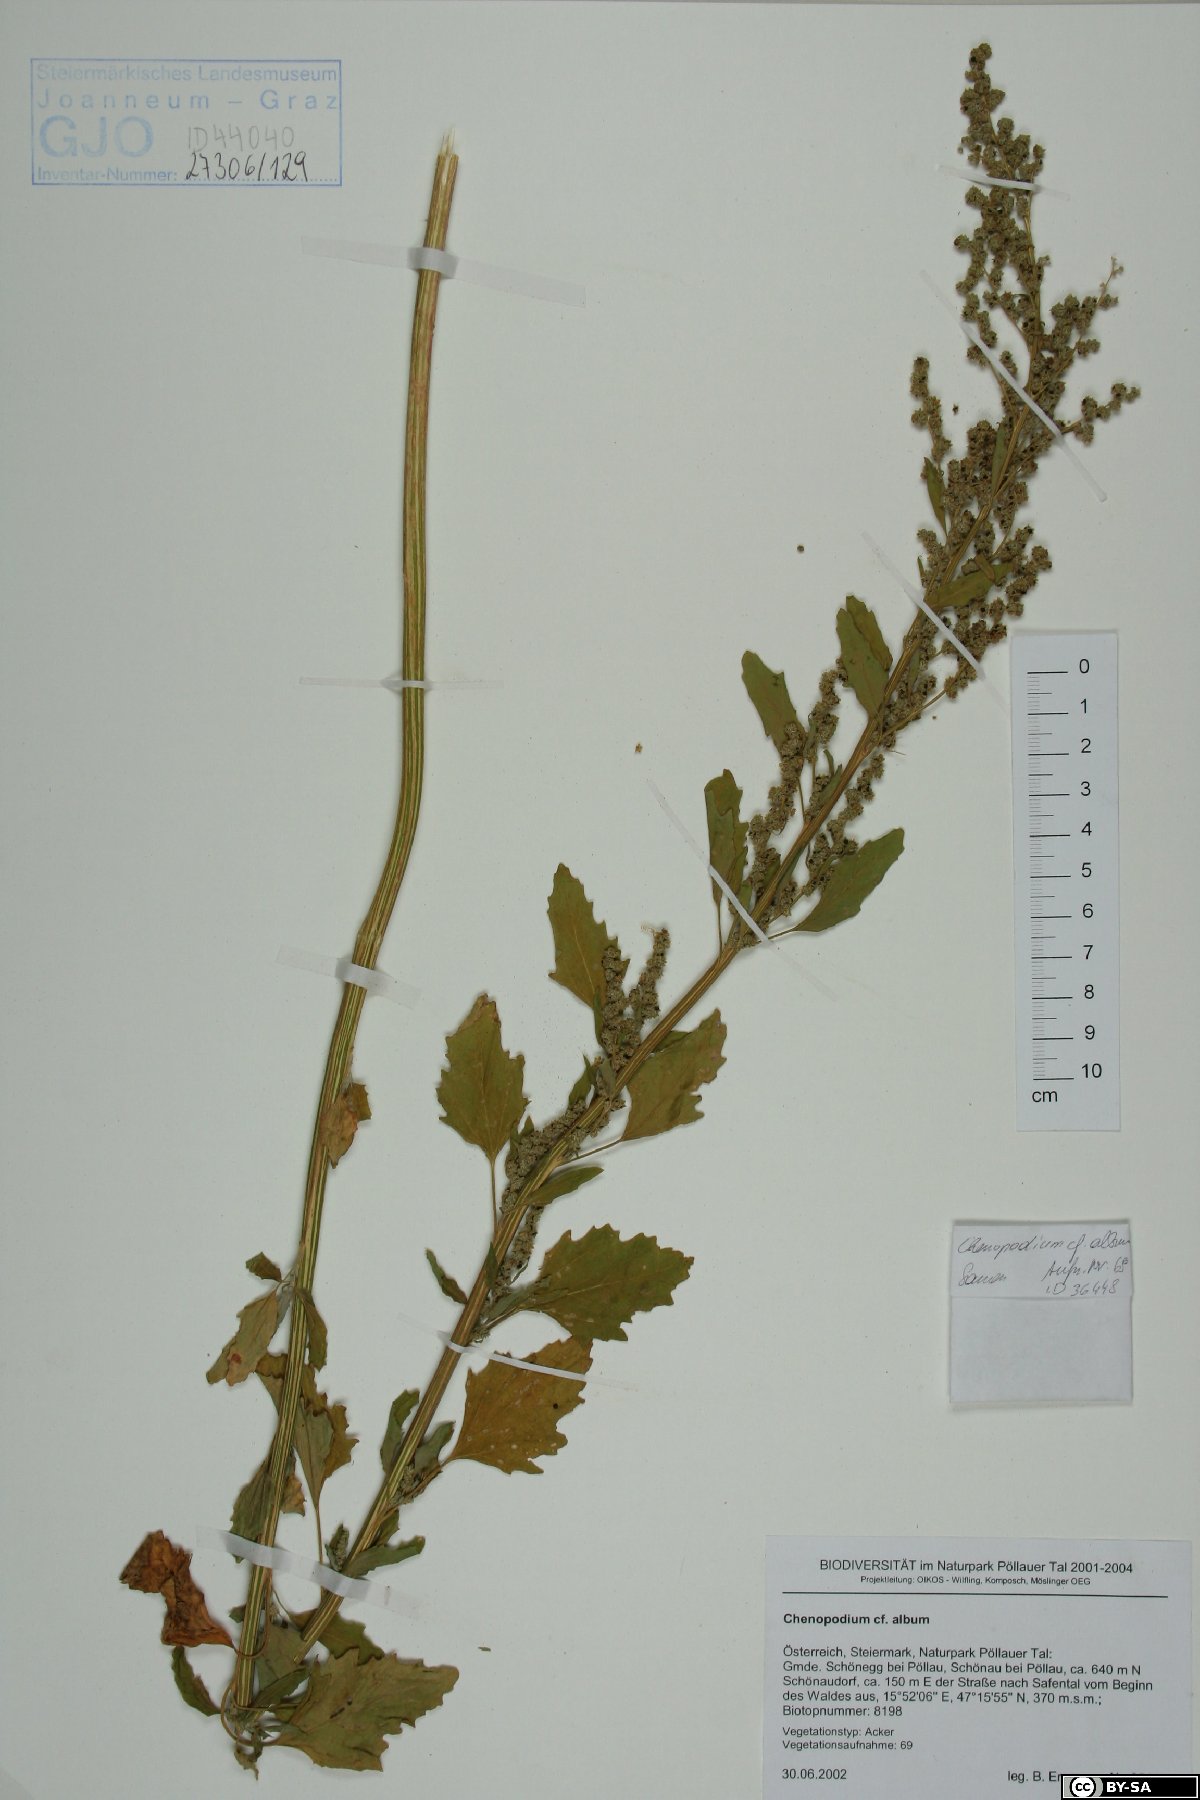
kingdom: Plantae
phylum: Tracheophyta
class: Magnoliopsida
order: Caryophyllales
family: Amaranthaceae
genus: Chenopodium
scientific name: Chenopodium album
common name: Fat-hen
